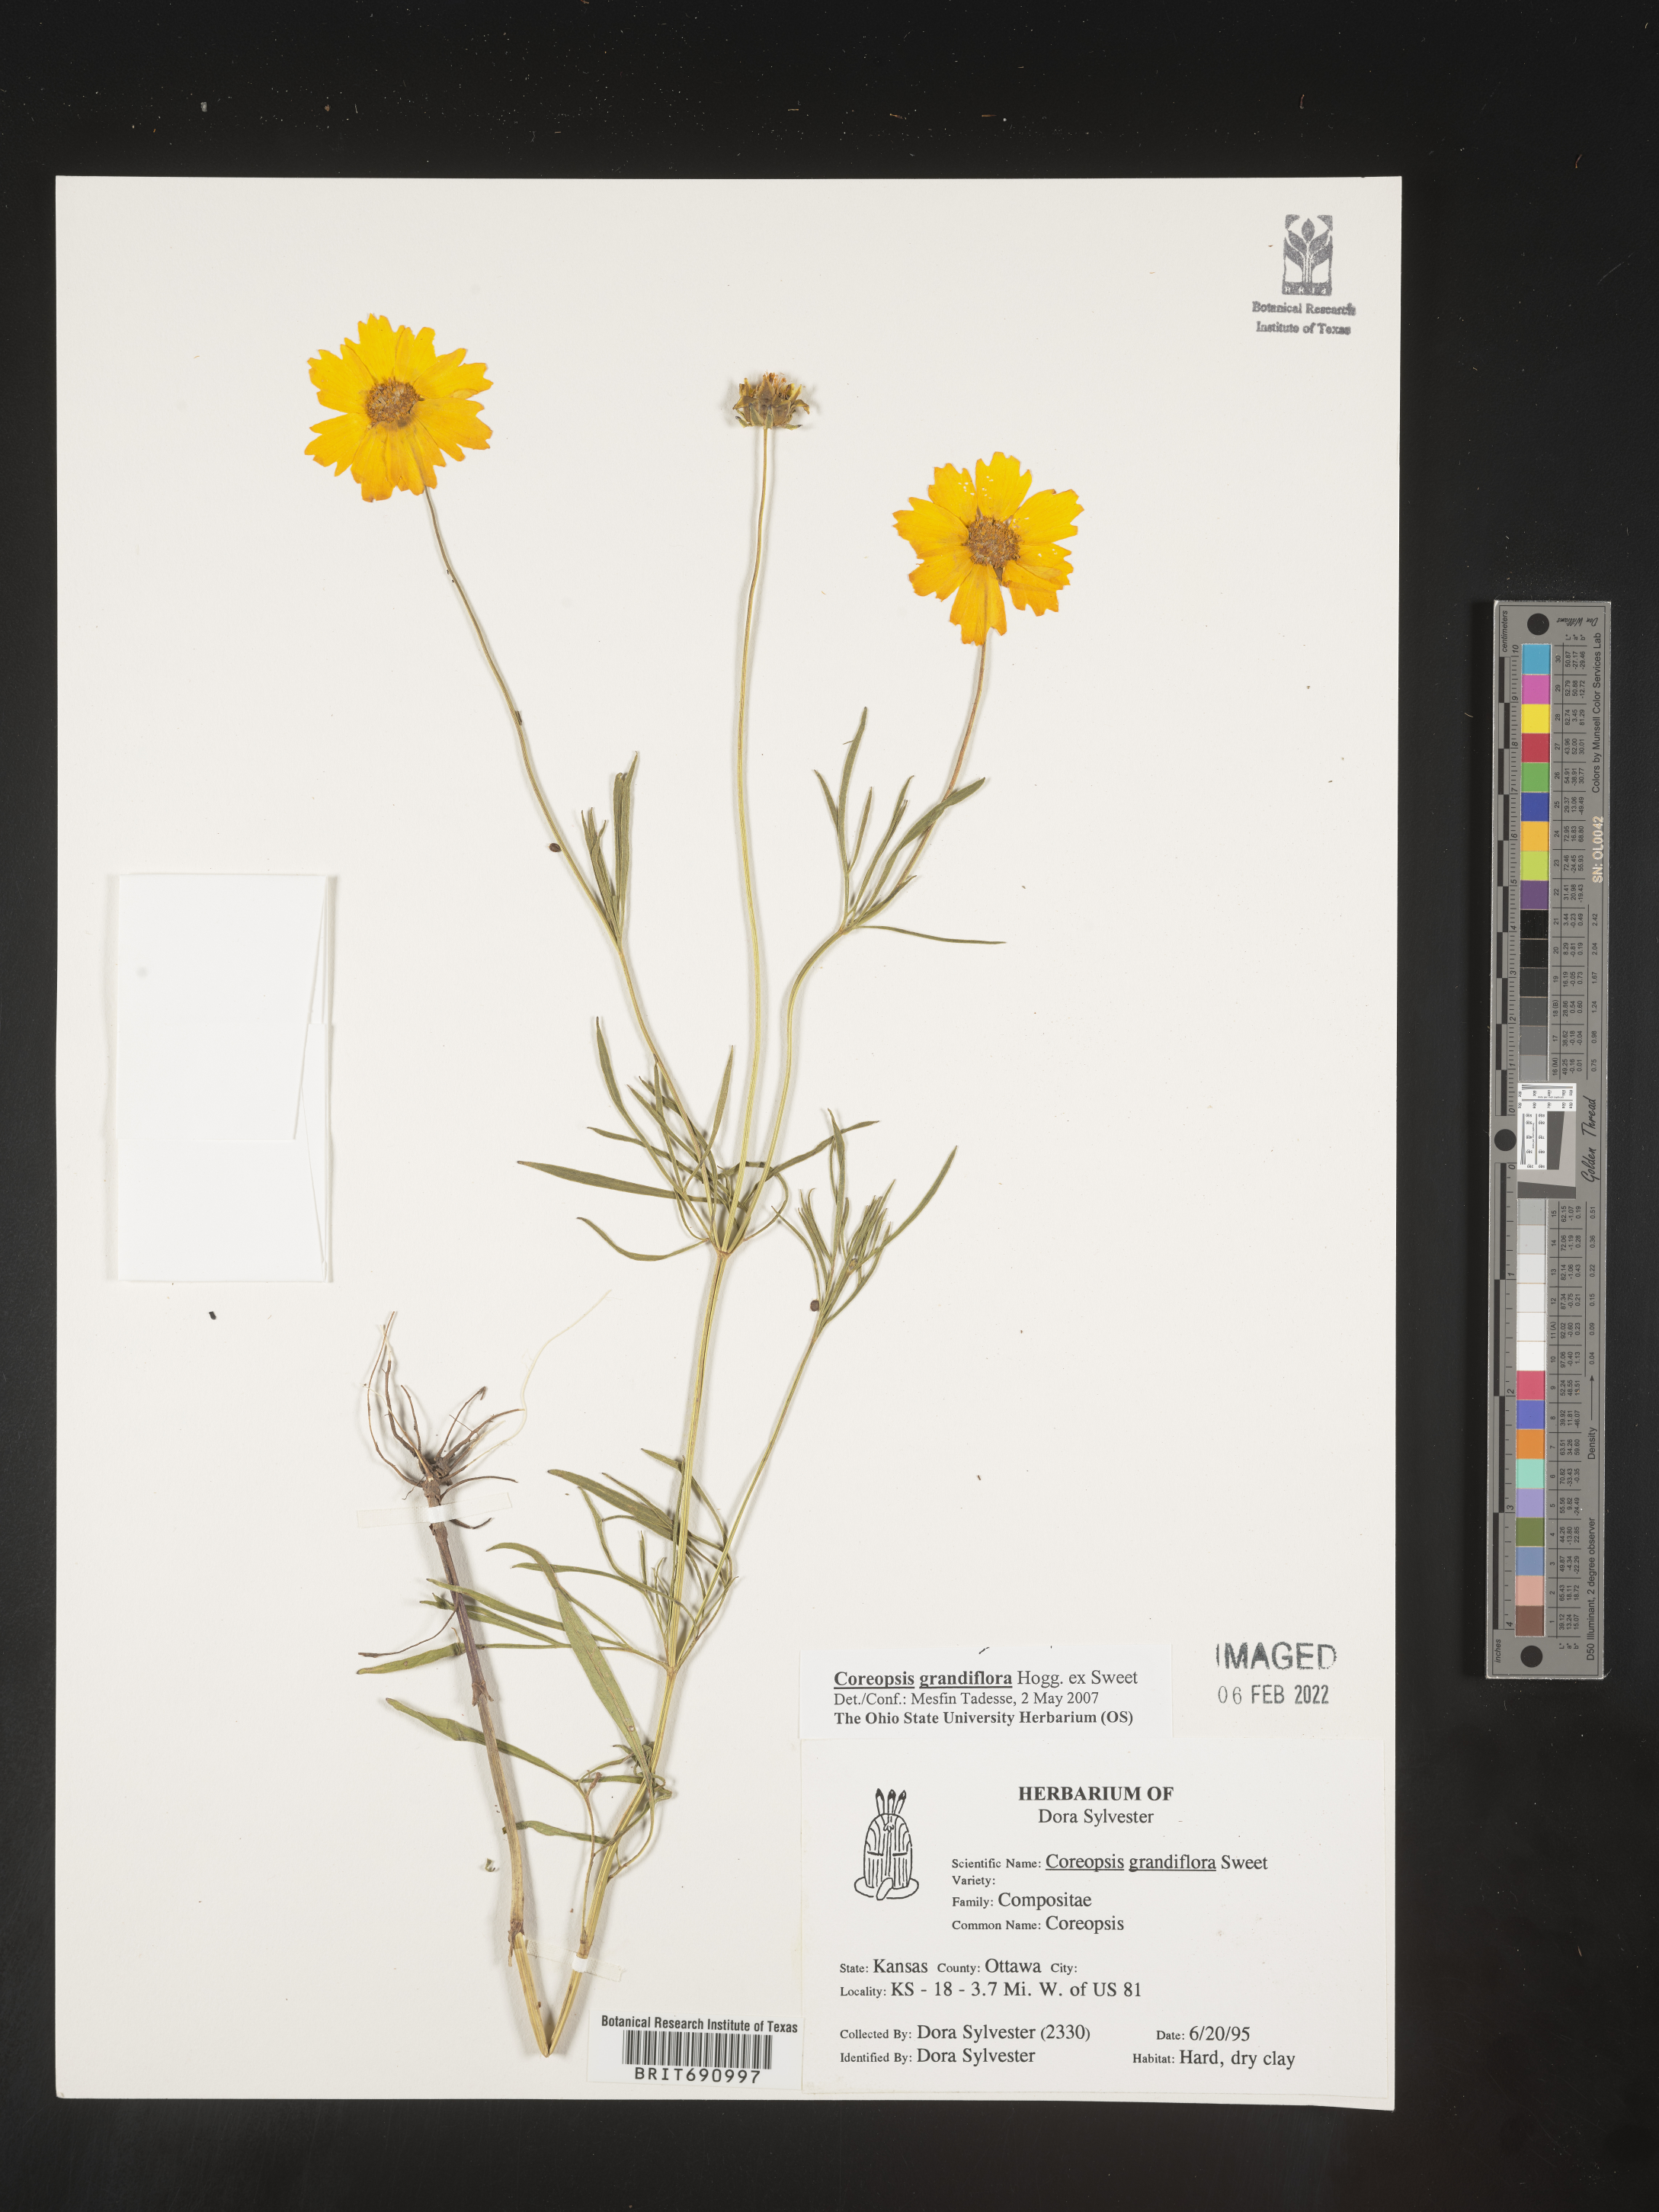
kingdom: Plantae
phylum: Tracheophyta
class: Magnoliopsida
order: Asterales
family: Asteraceae
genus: Coreopsis
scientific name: Coreopsis grandiflora
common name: Large-flowered tickseed
